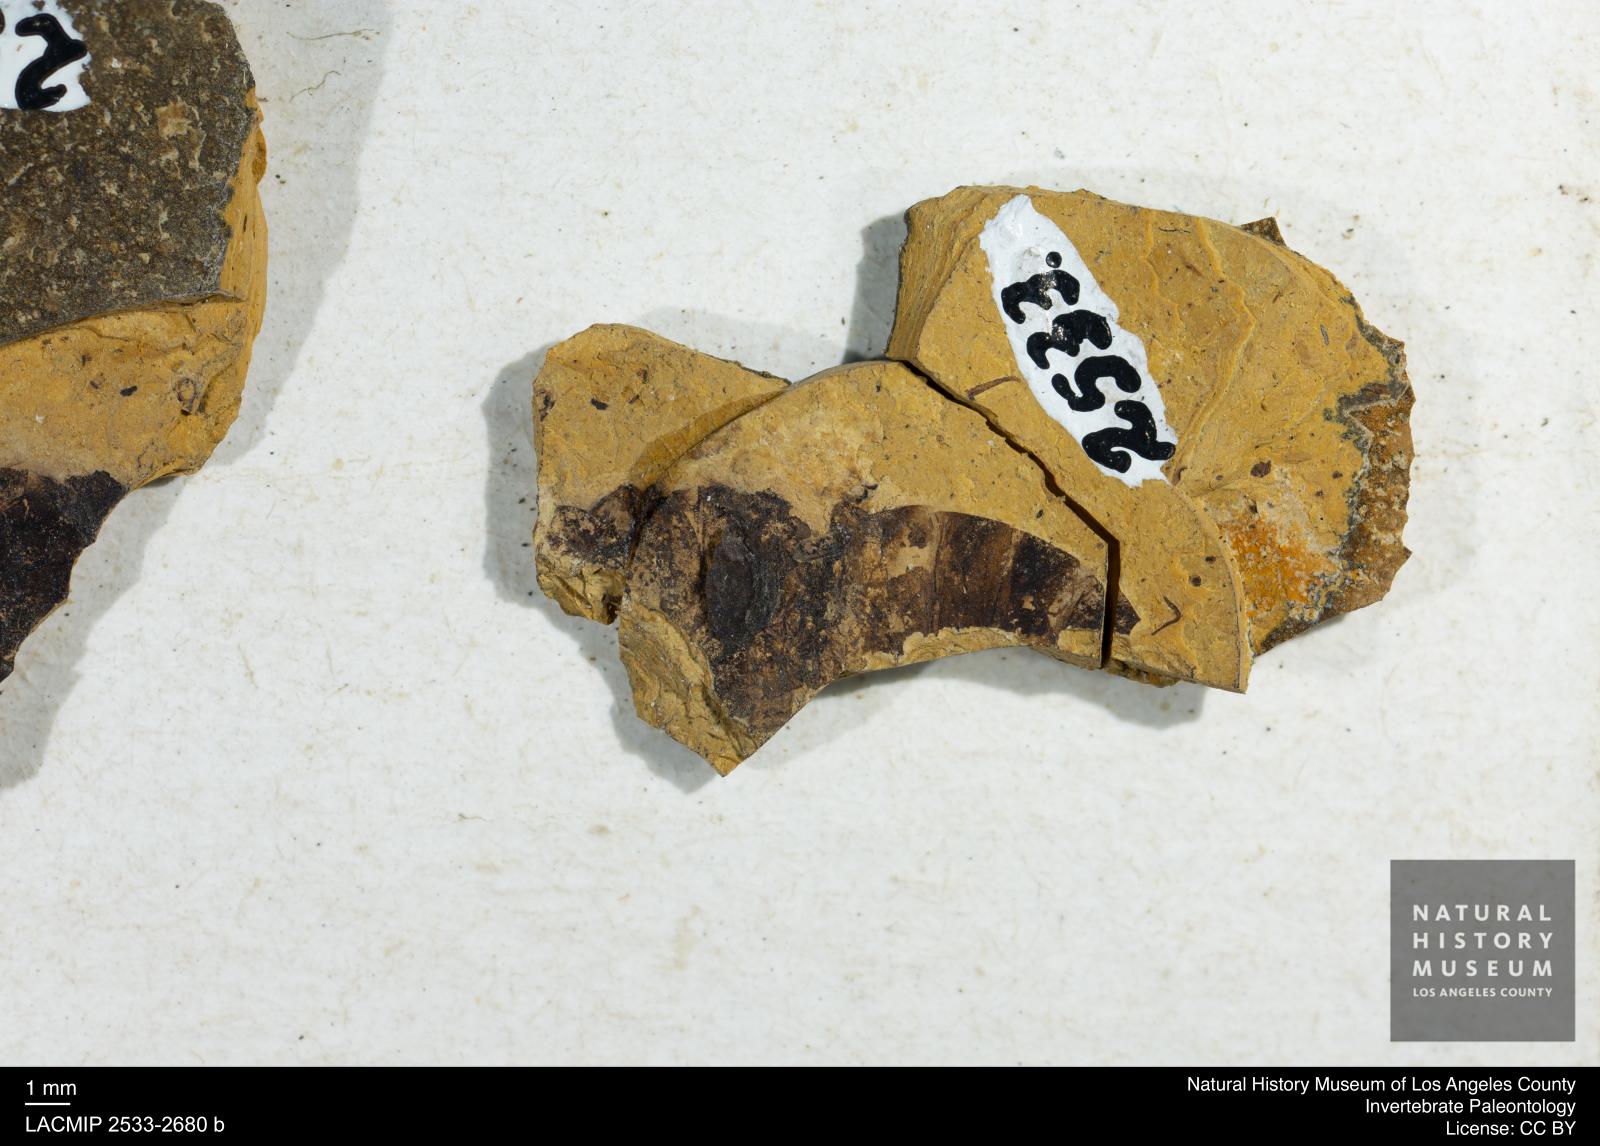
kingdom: Animalia
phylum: Arthropoda
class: Insecta
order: Hymenoptera
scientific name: Hymenoptera
